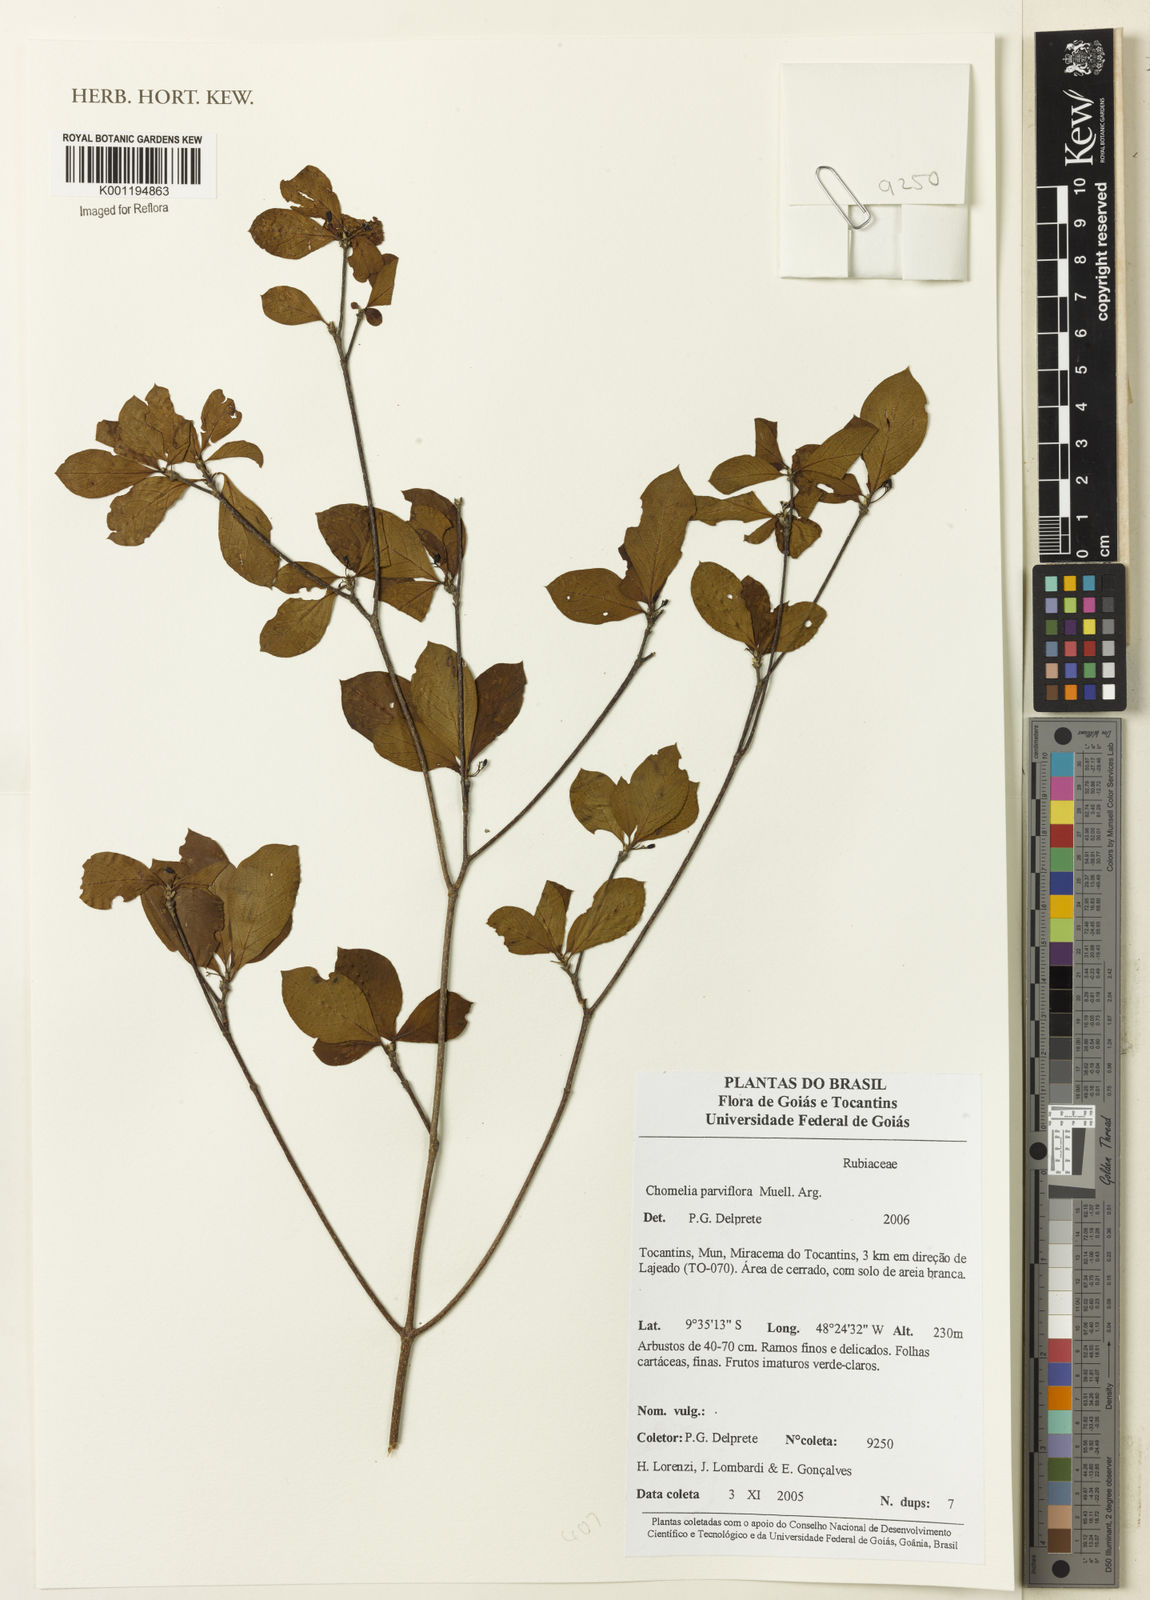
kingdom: Plantae
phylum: Tracheophyta
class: Magnoliopsida
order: Gentianales
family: Rubiaceae
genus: Chomelia
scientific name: Chomelia
